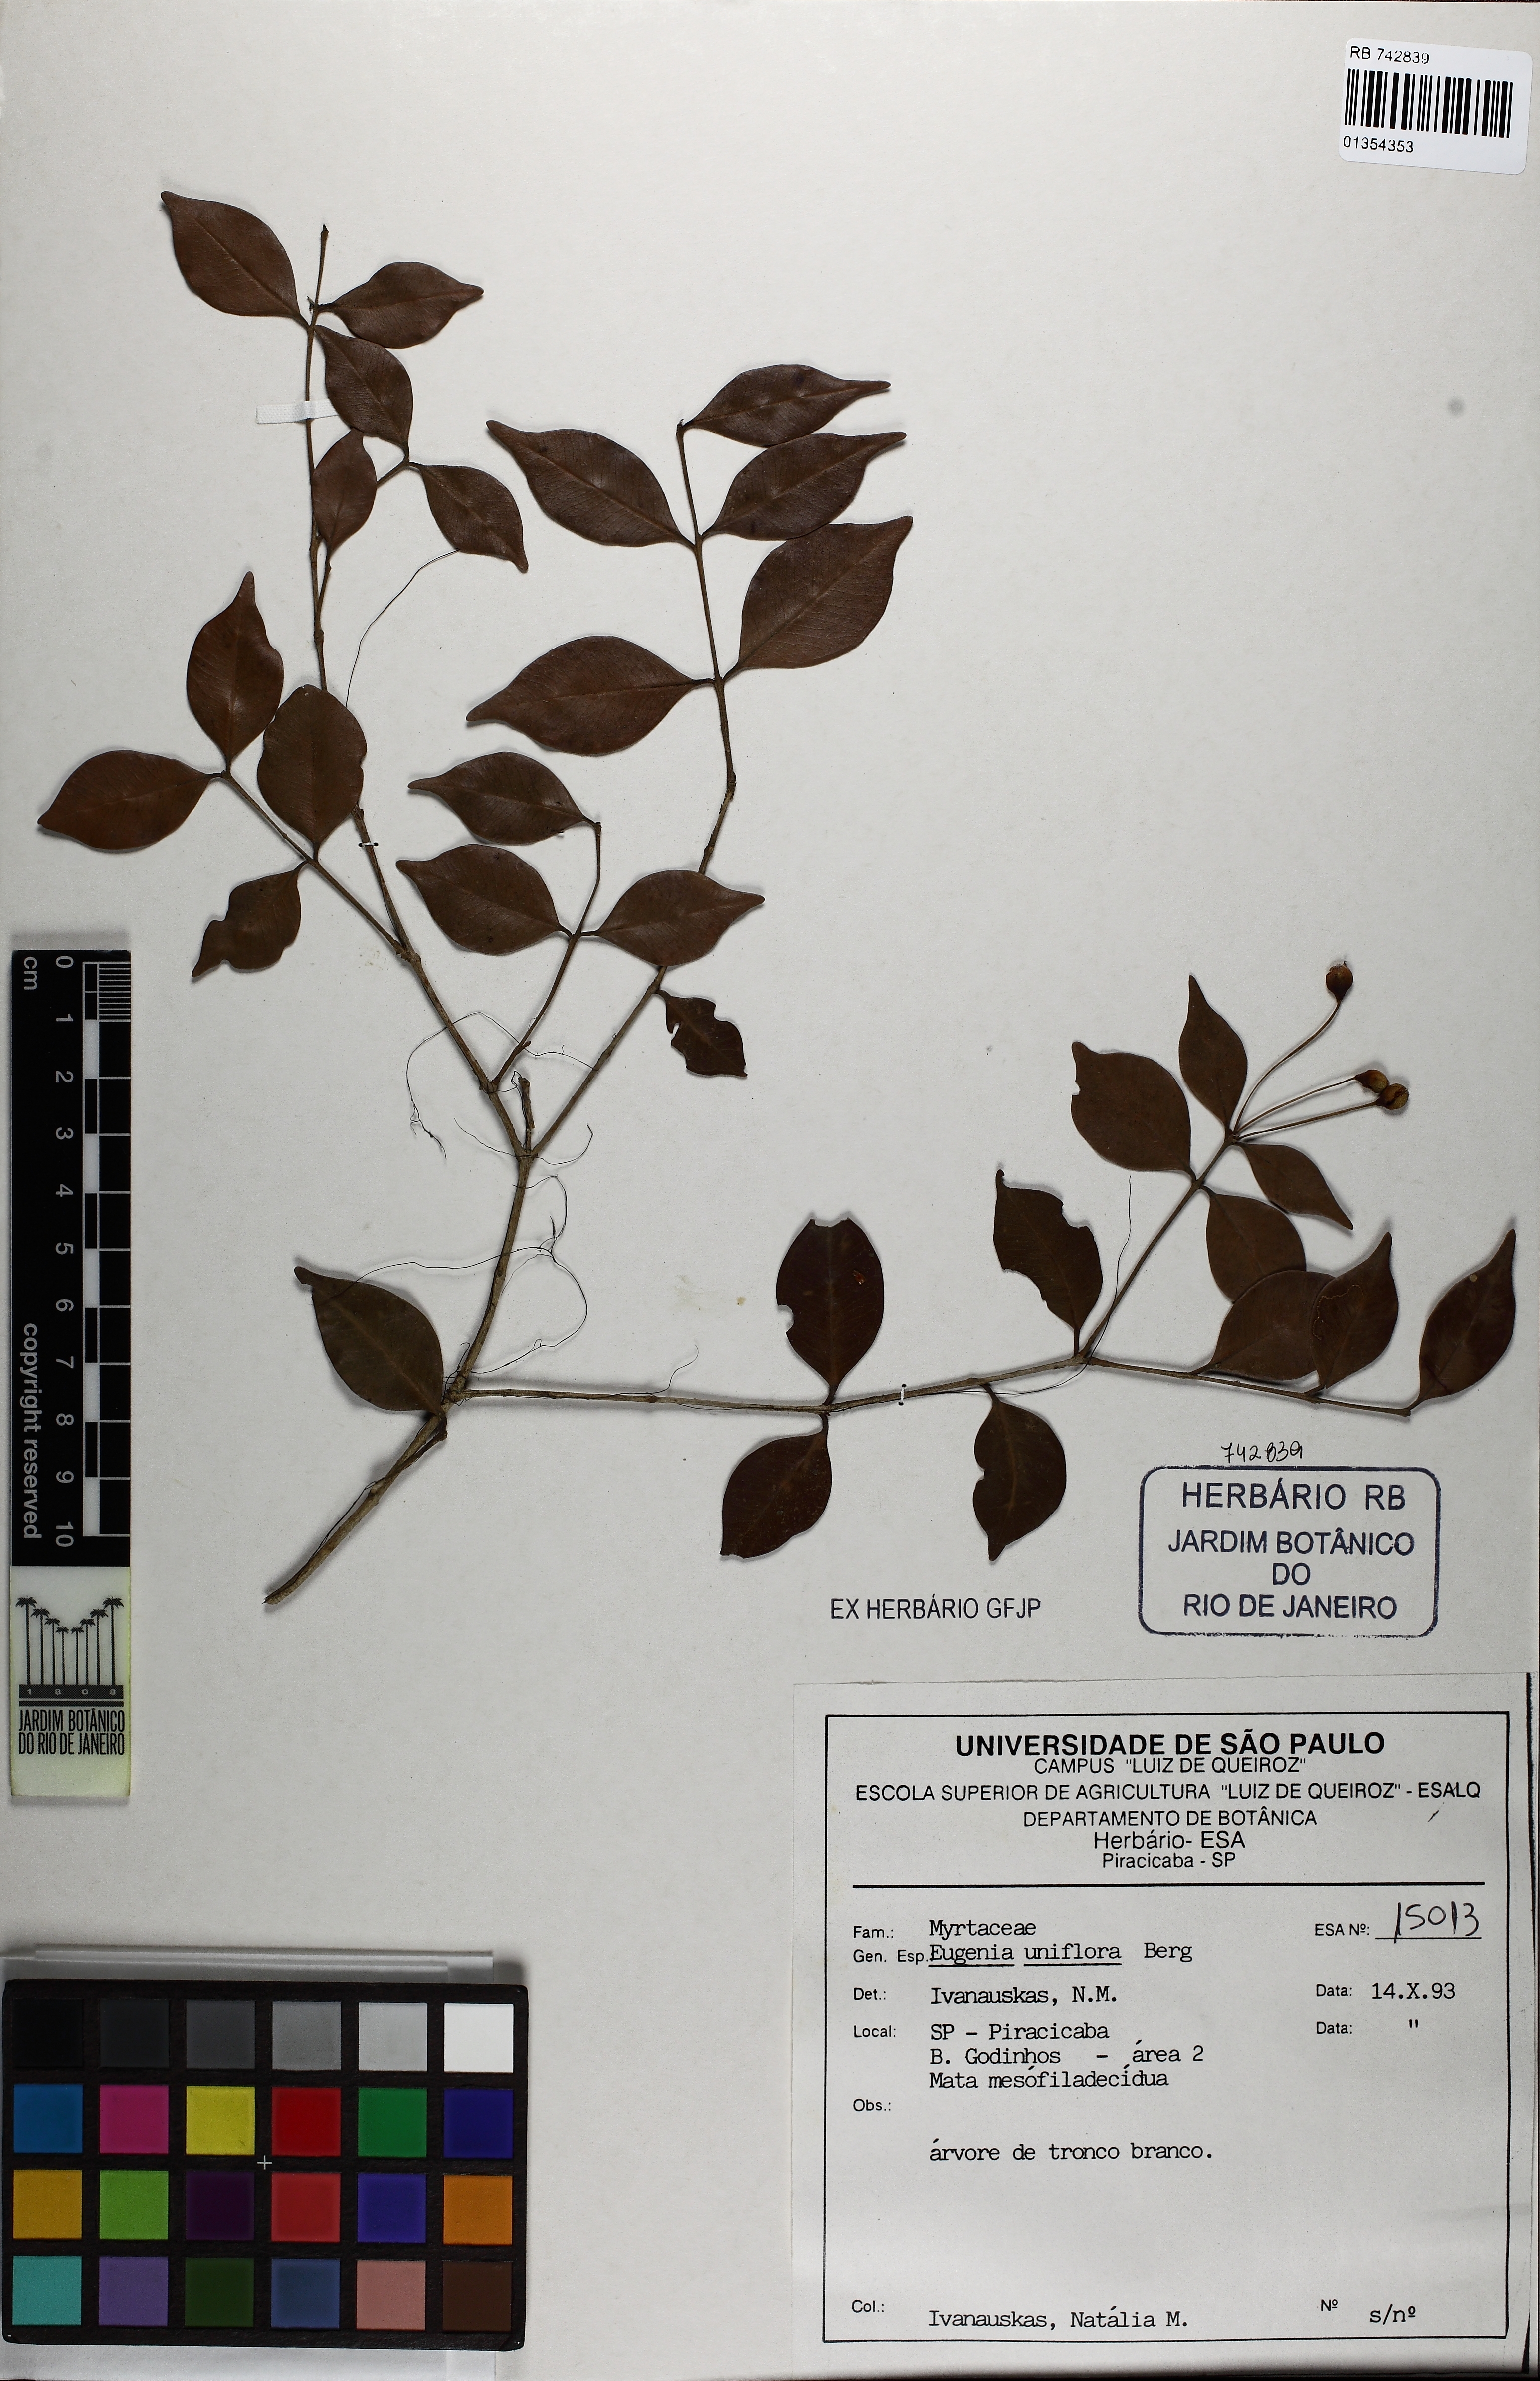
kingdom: Plantae
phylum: Tracheophyta
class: Magnoliopsida
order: Myrtales
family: Myrtaceae
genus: Eugenia
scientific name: Eugenia uniflora
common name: Surinam cherry
